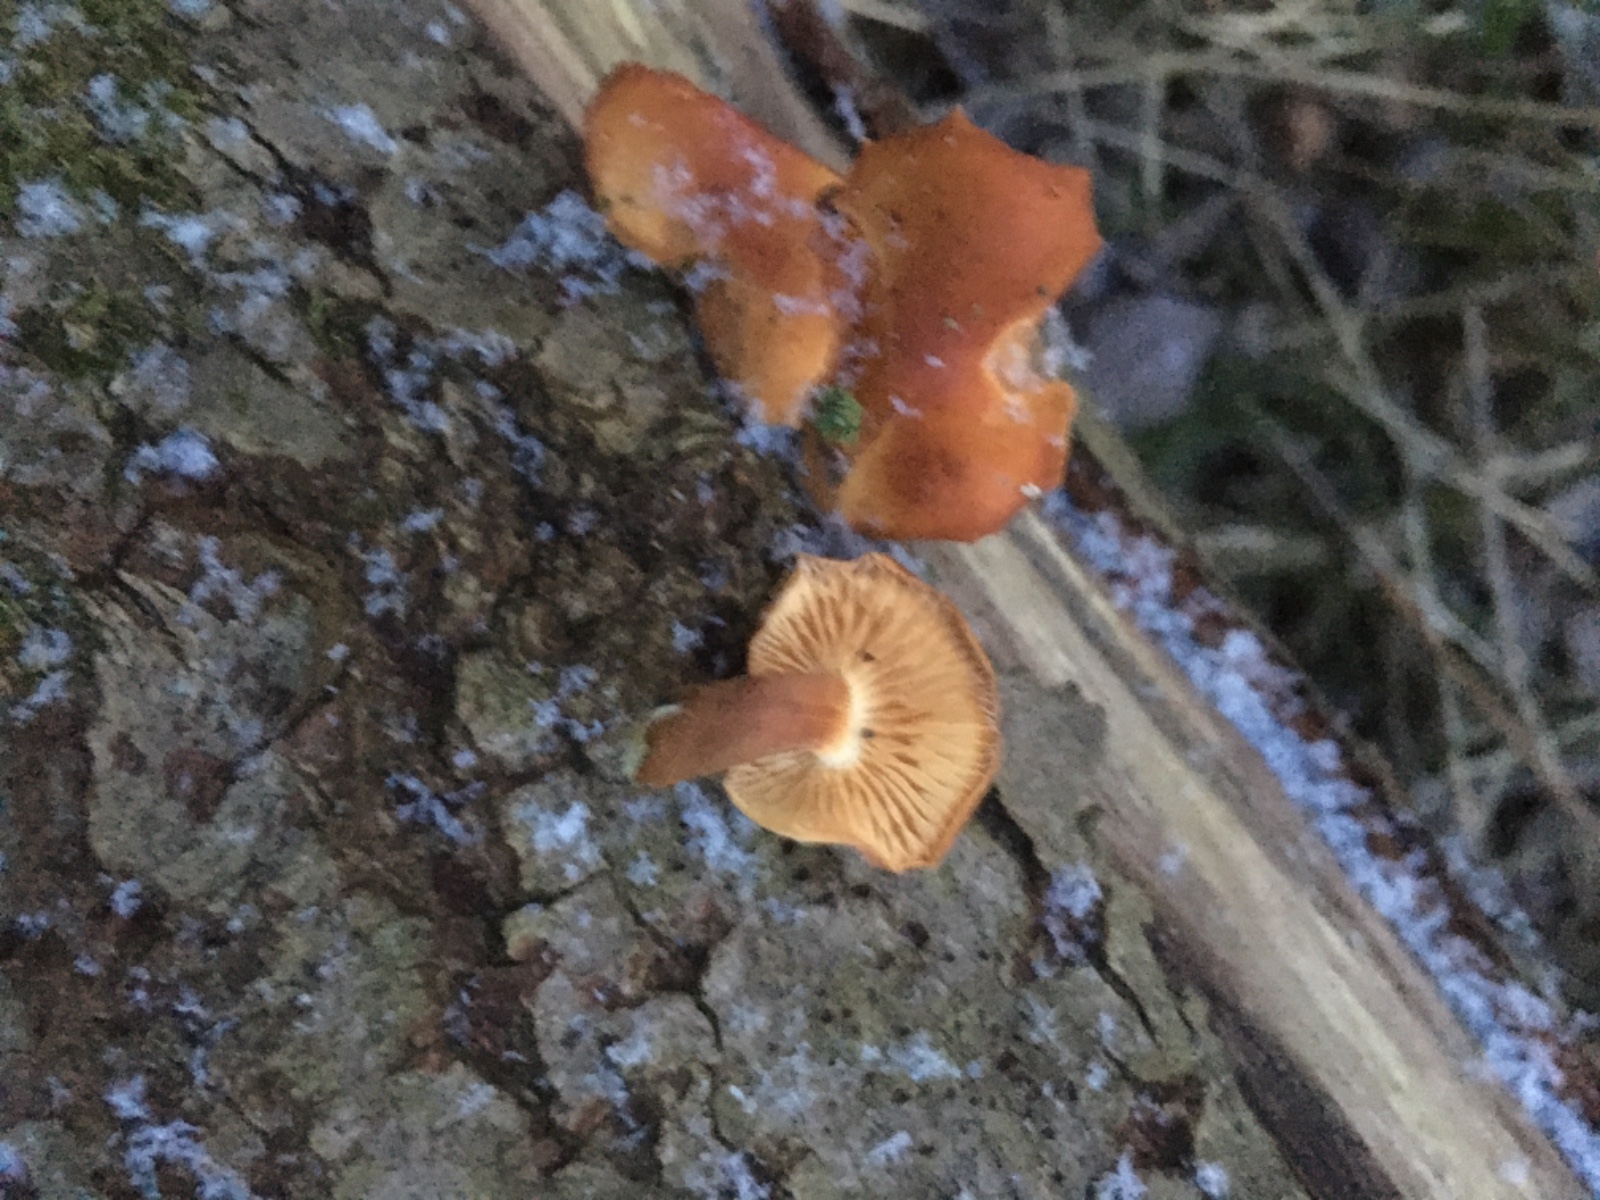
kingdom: Fungi
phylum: Basidiomycota
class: Agaricomycetes
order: Agaricales
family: Physalacriaceae
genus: Flammulina
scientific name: Flammulina elastica
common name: pile-fløjlsfod
